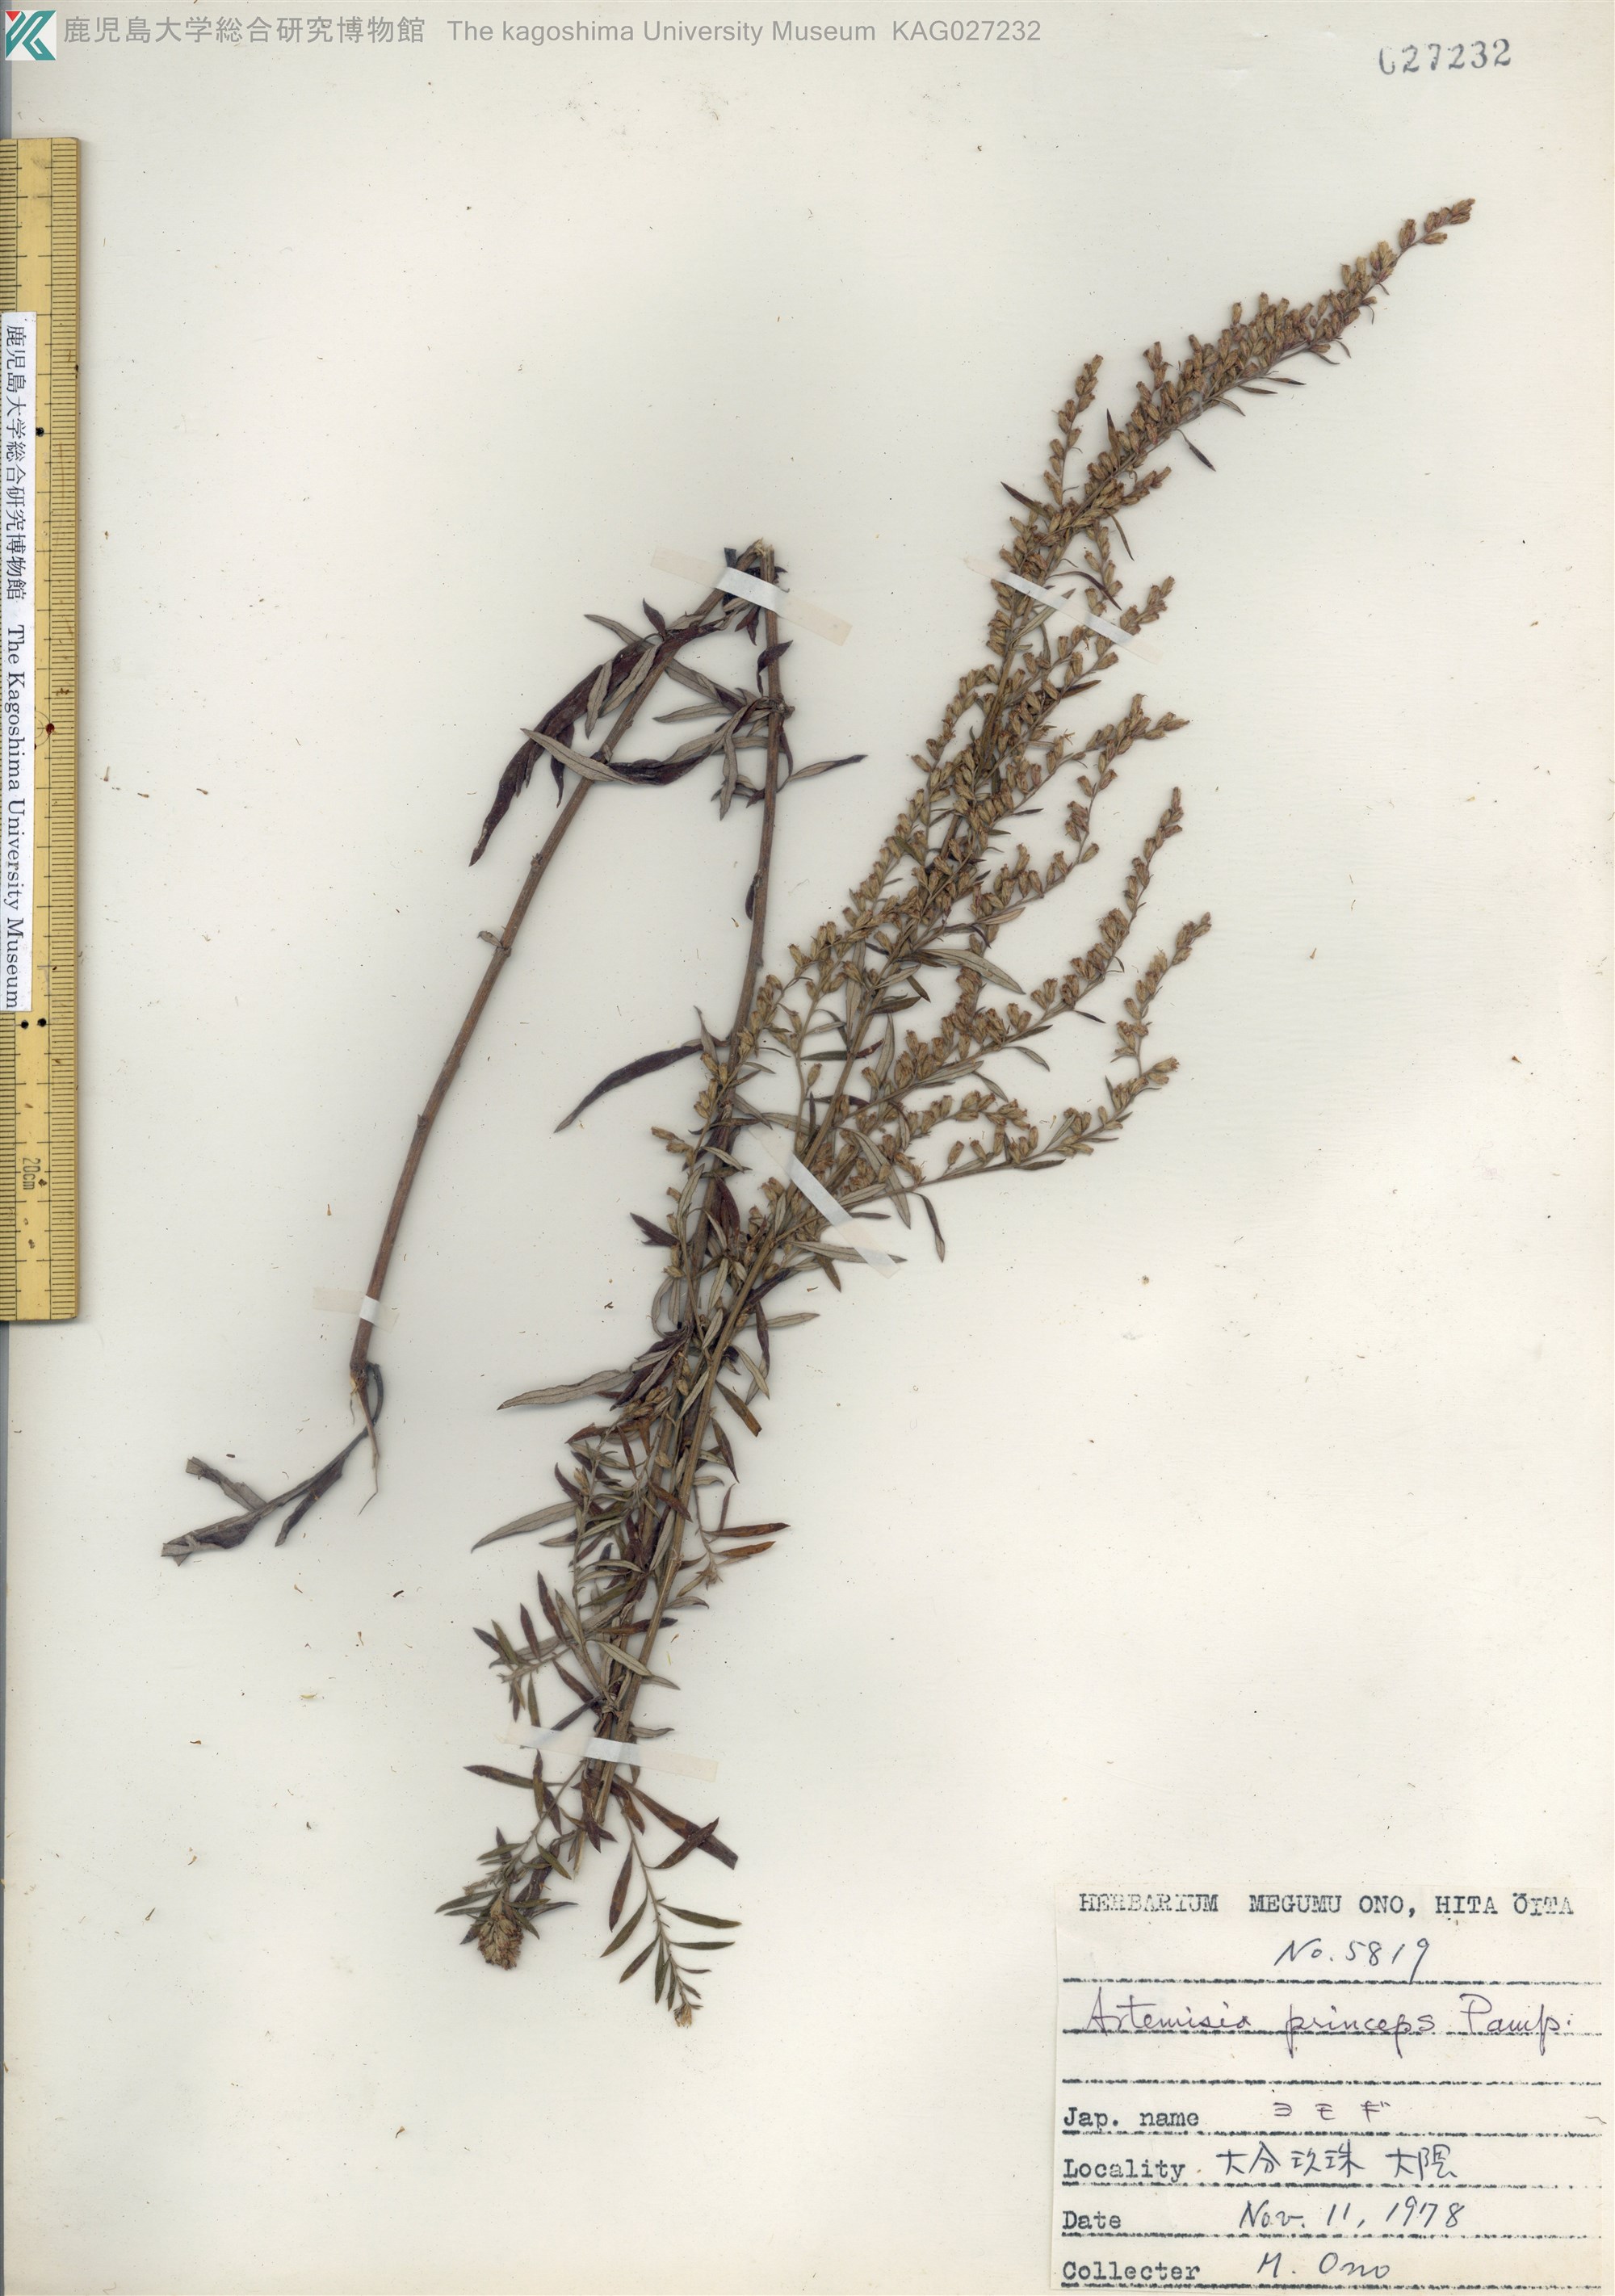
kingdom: Plantae
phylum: Tracheophyta
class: Magnoliopsida
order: Asterales
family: Asteraceae
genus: Artemisia
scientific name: Artemisia princeps
